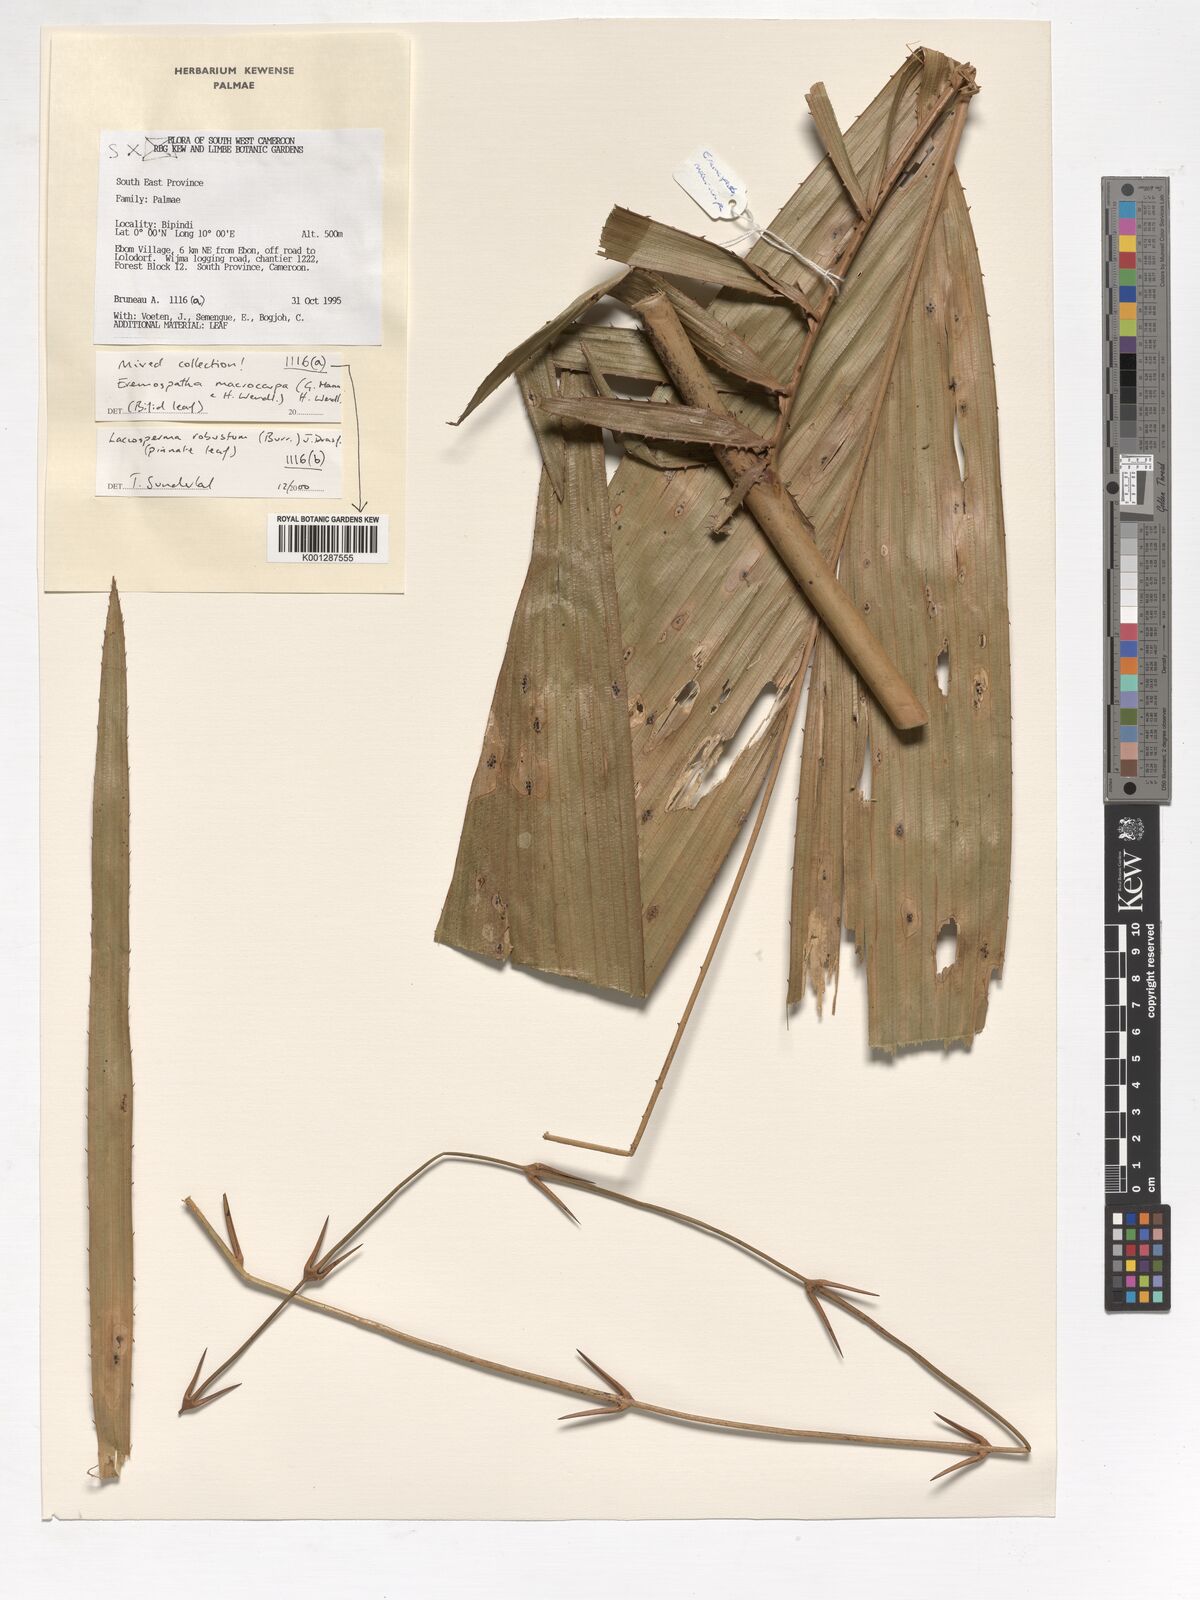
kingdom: Plantae
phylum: Tracheophyta
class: Liliopsida
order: Arecales
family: Arecaceae
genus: Eremospatha
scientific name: Eremospatha macrocarpa
